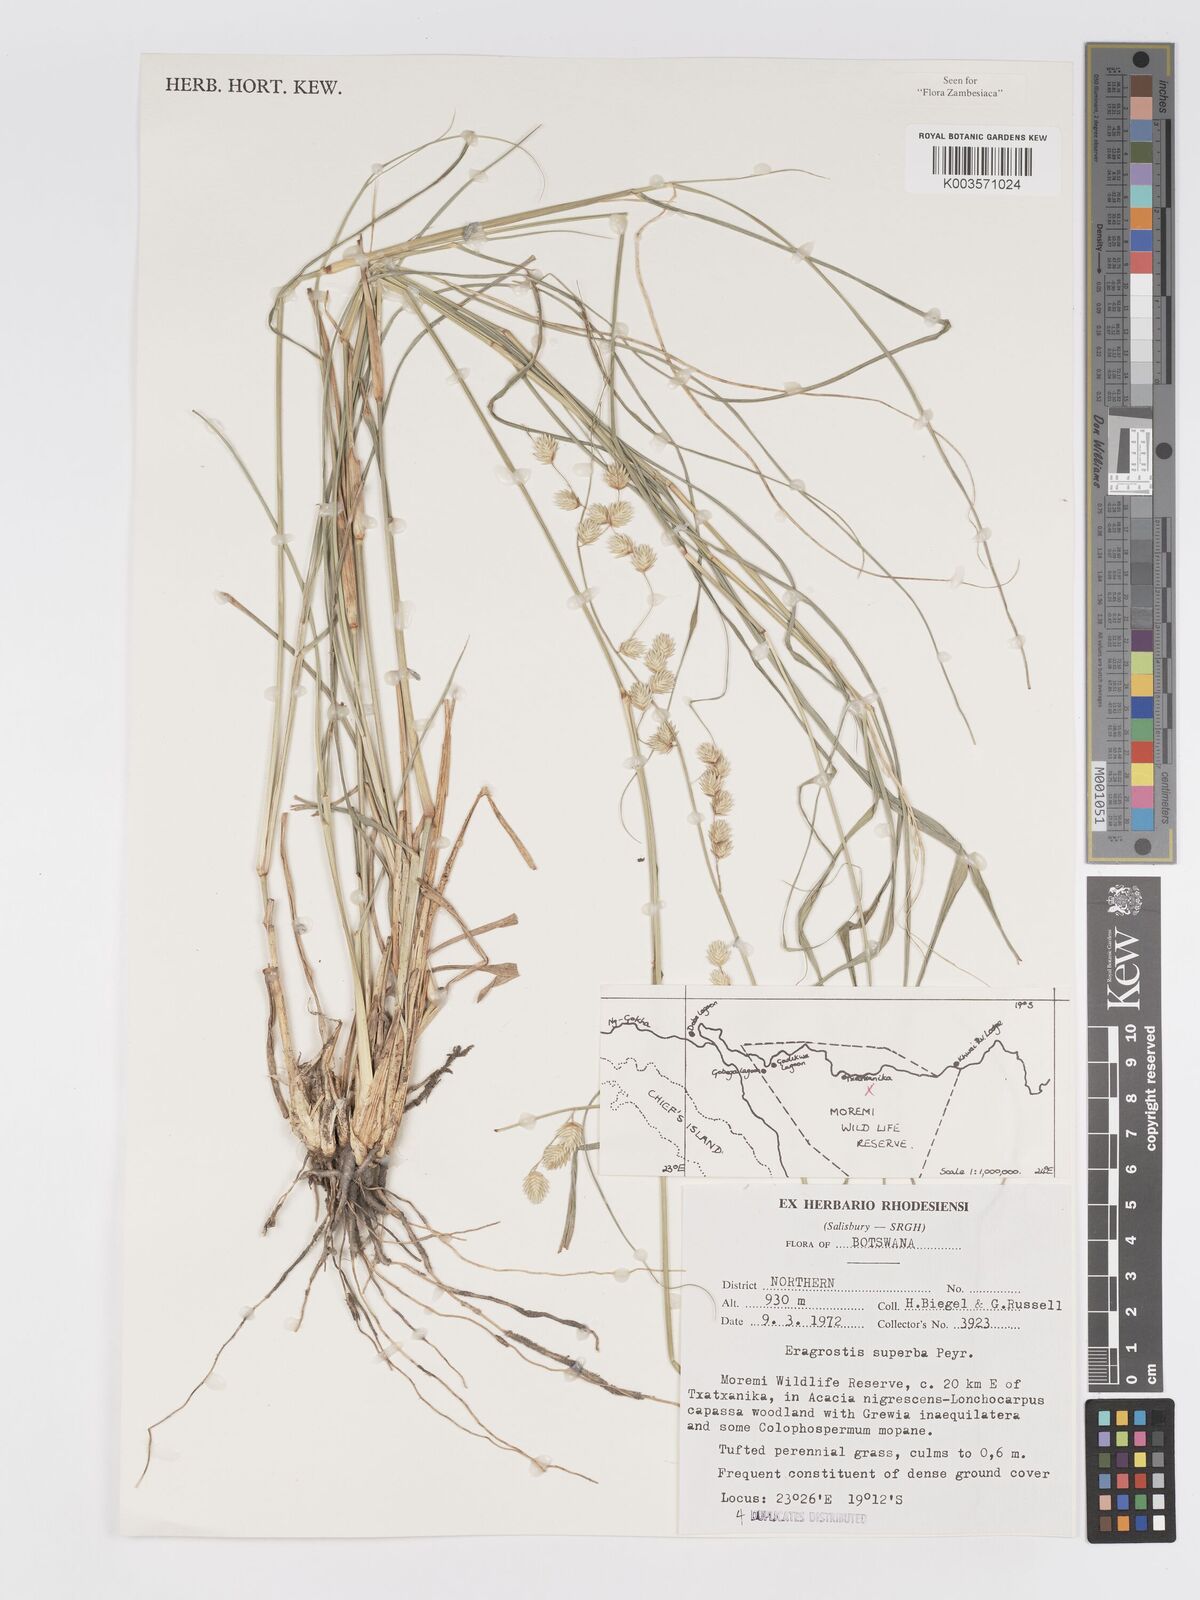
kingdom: Plantae
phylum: Tracheophyta
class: Liliopsida
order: Poales
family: Poaceae
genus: Eragrostis
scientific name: Eragrostis superba
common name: Wilman lovegrass
